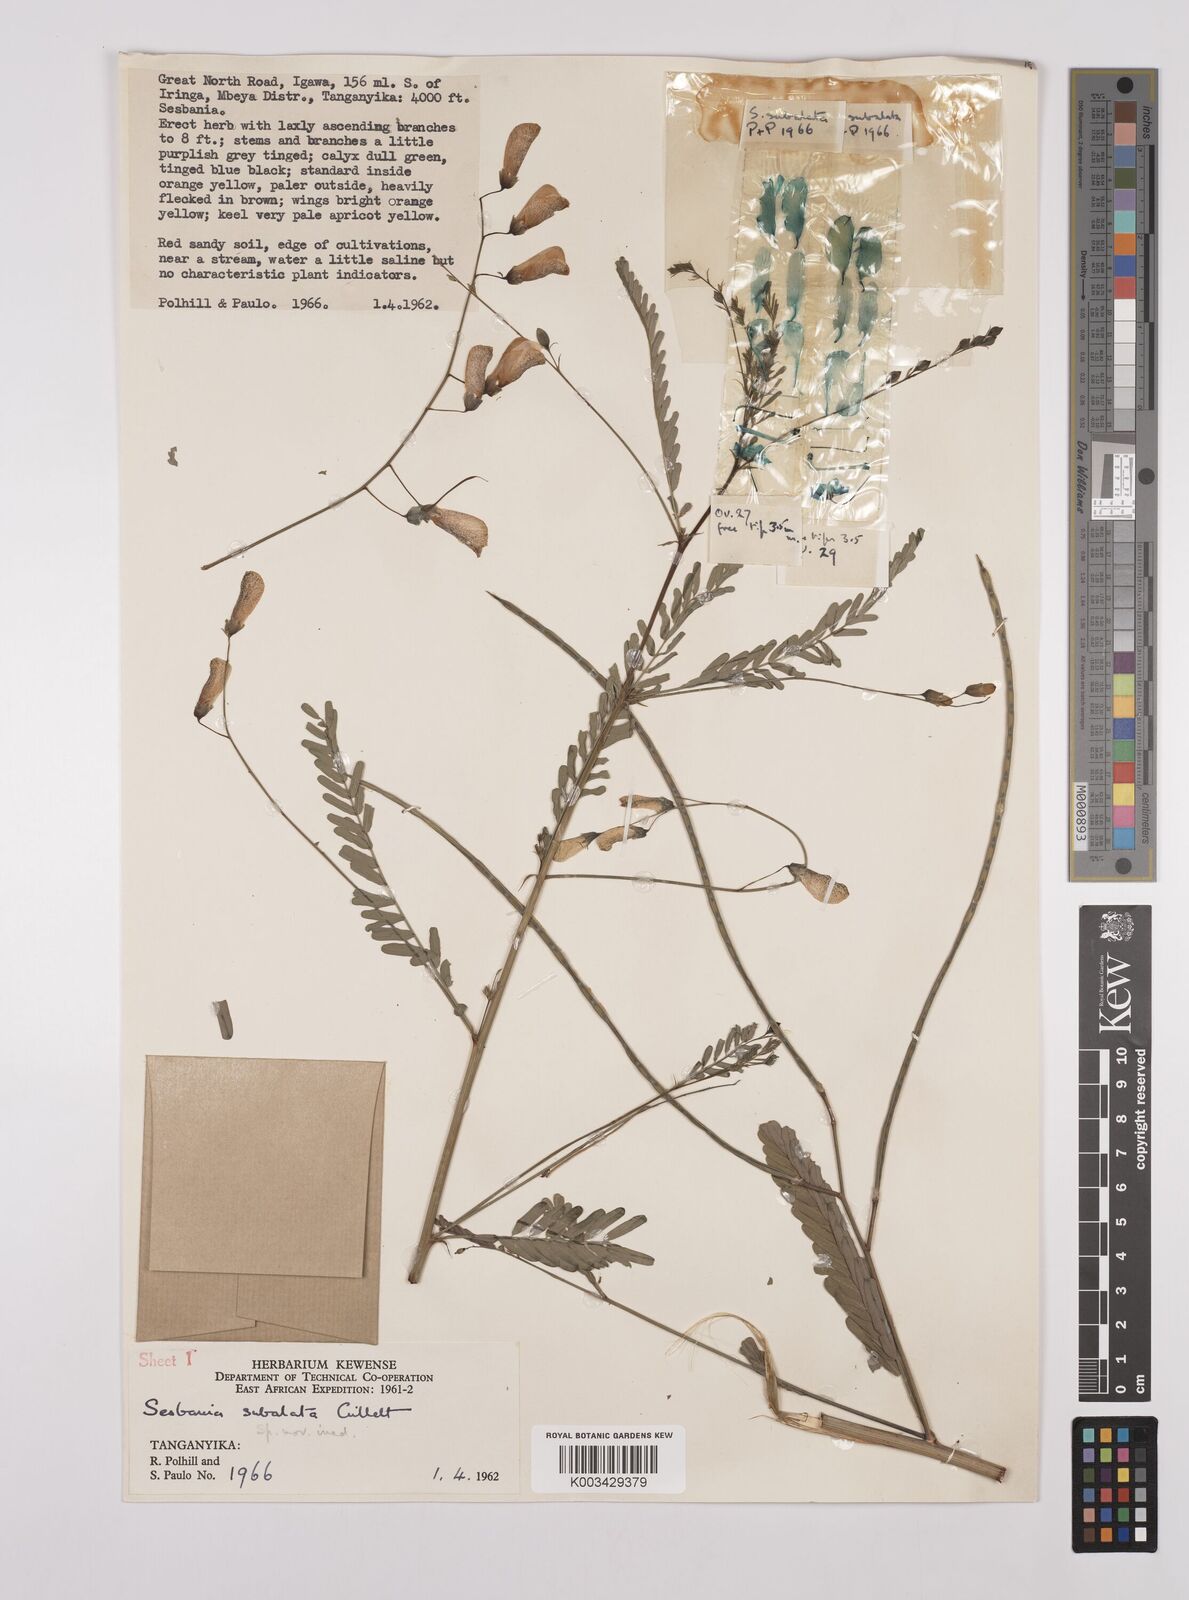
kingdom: Plantae
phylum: Tracheophyta
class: Magnoliopsida
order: Fabales
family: Fabaceae
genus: Sesbania
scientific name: Sesbania subalata
